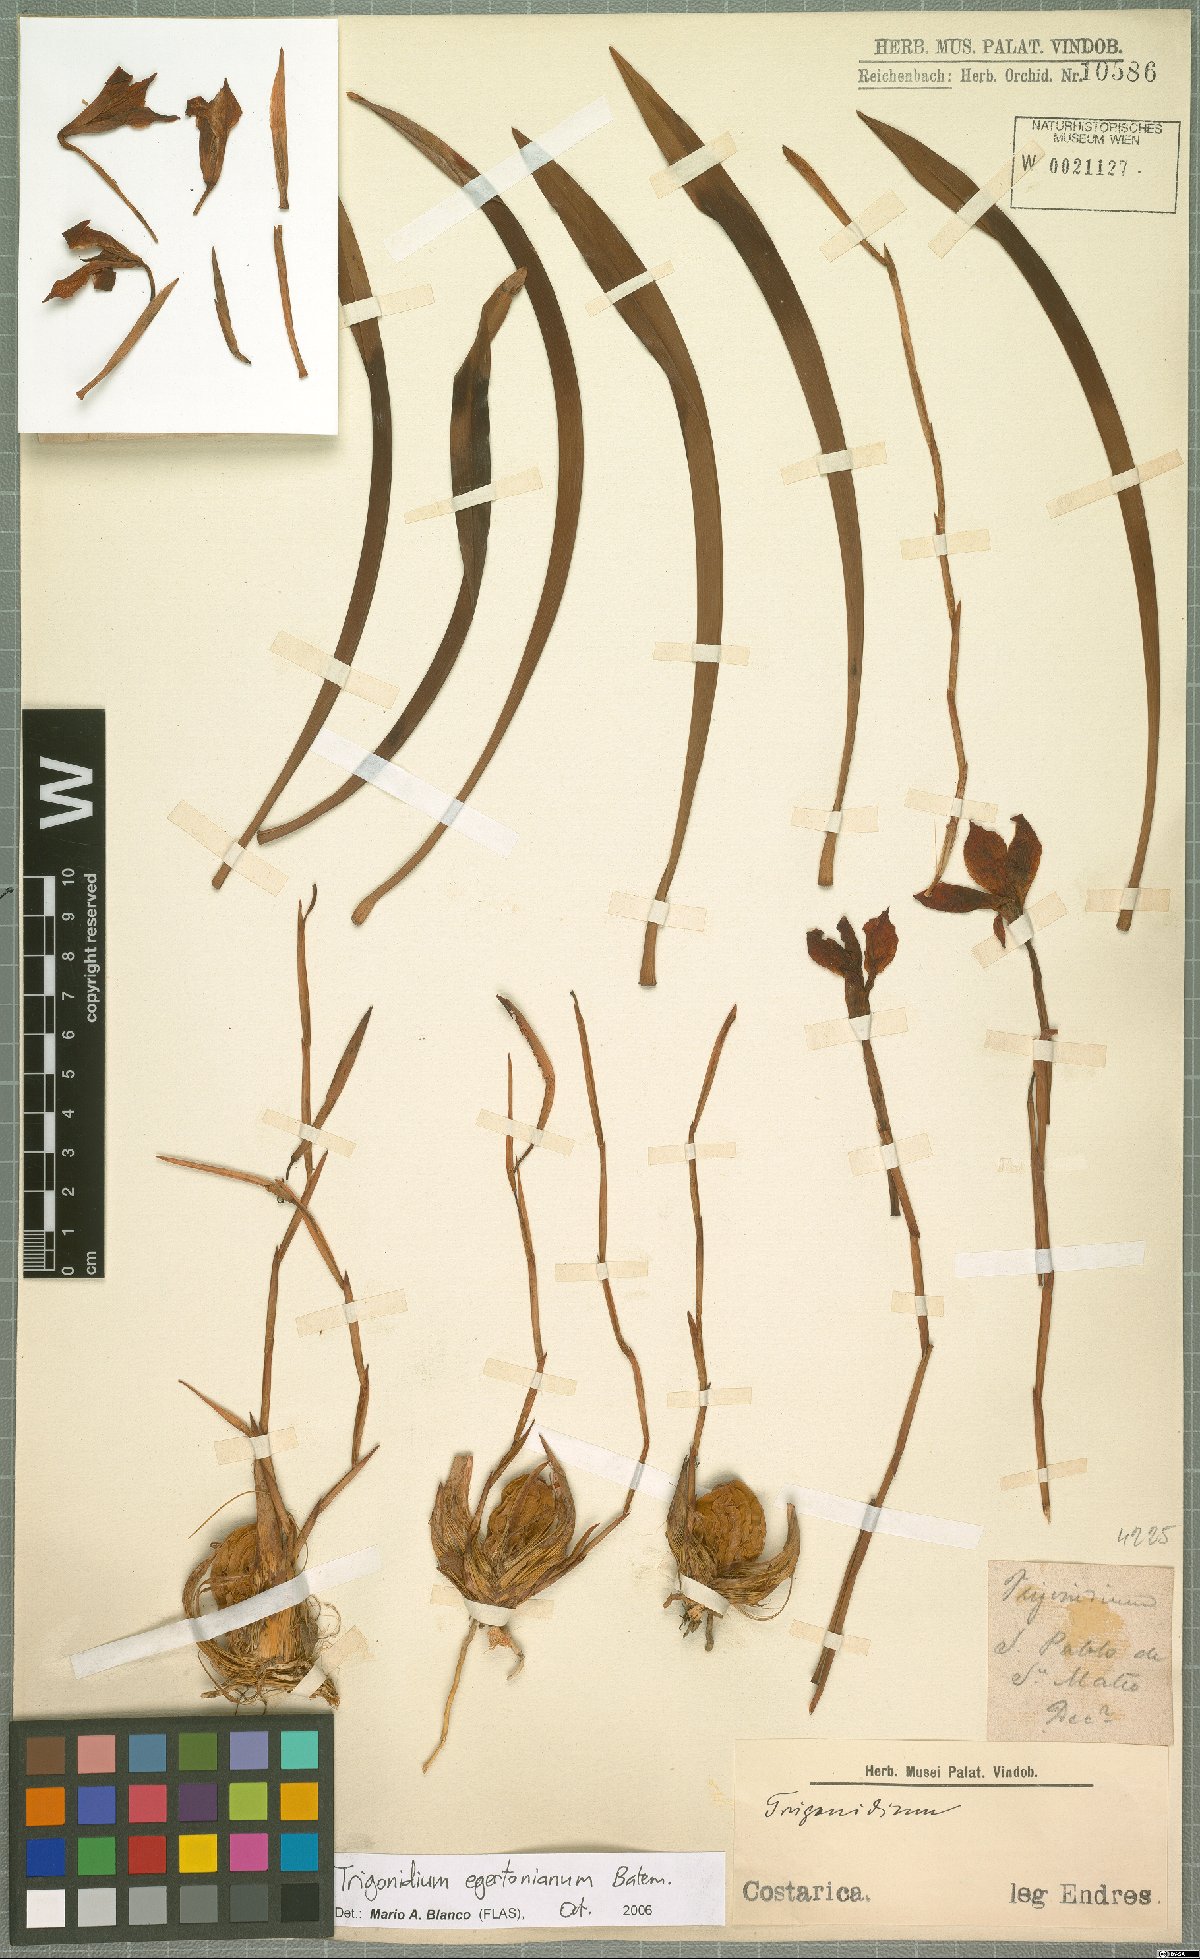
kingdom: Plantae
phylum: Tracheophyta
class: Liliopsida
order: Asparagales
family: Orchidaceae
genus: Maxillaria
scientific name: Maxillaria egertoniana
